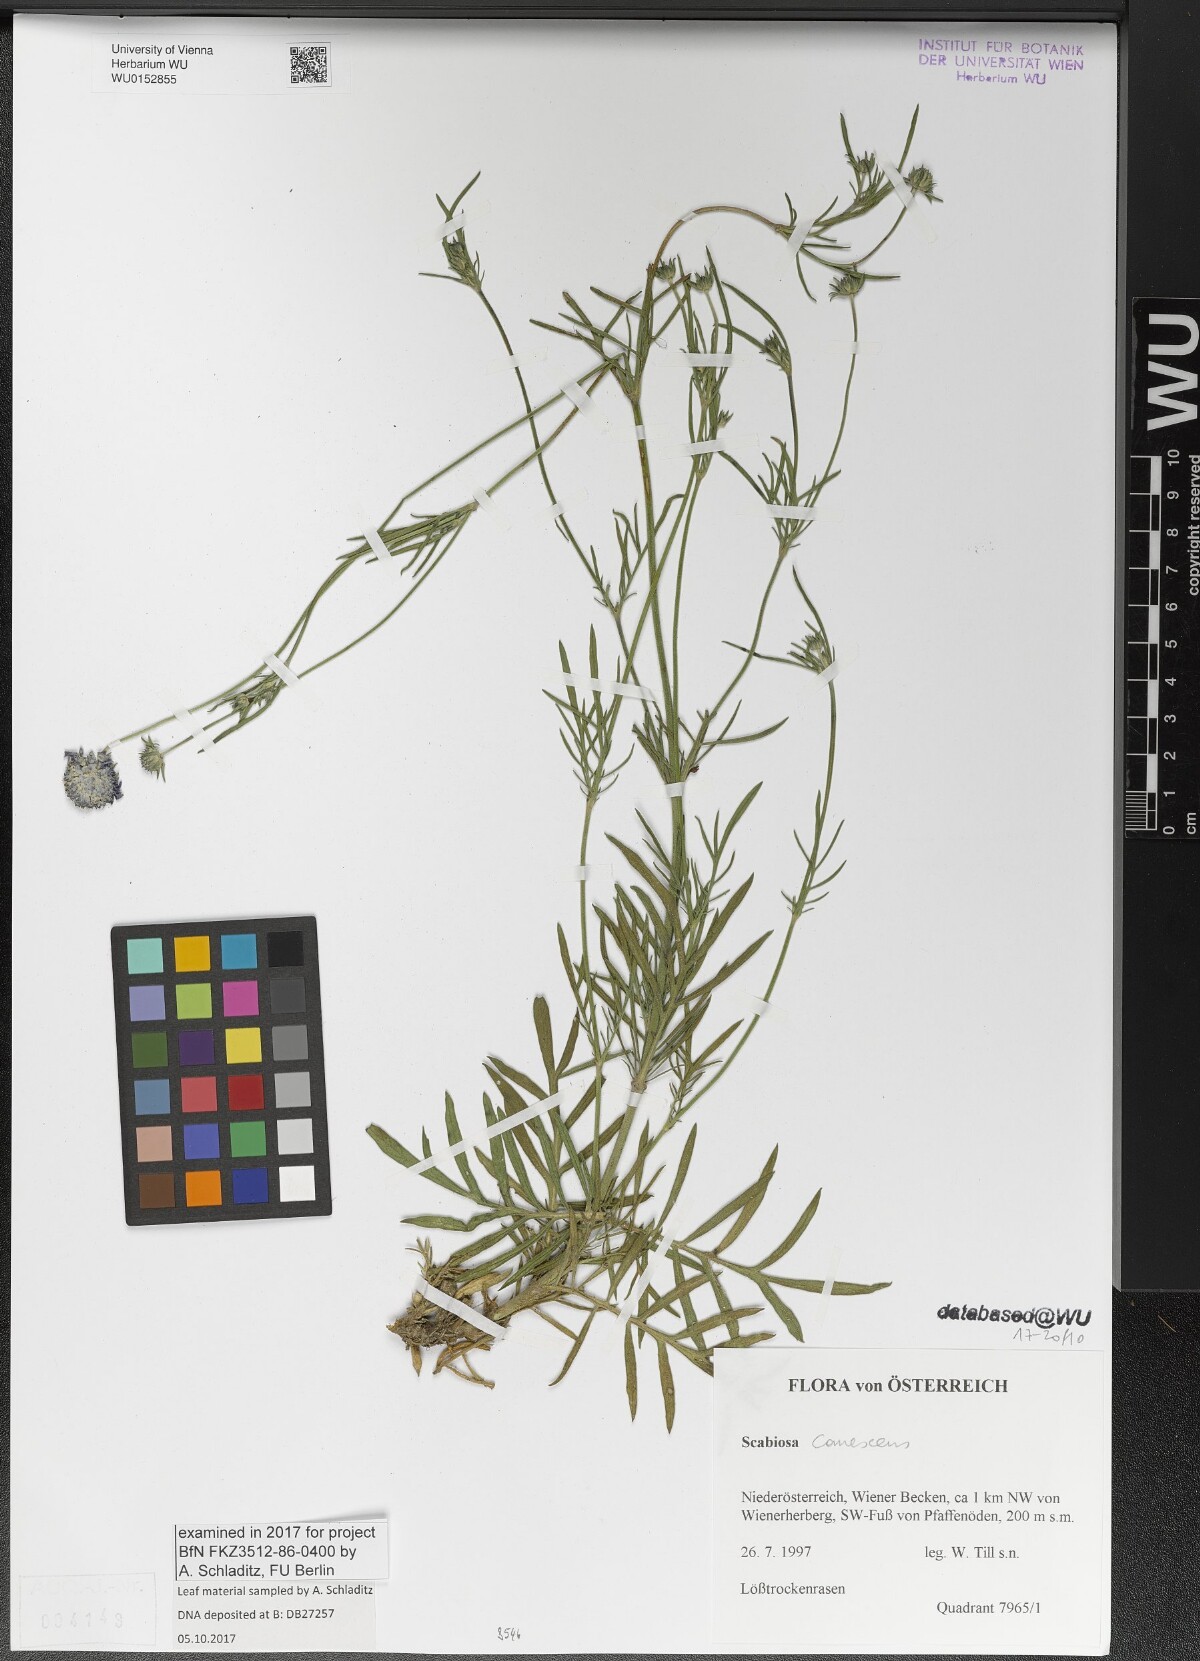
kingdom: Plantae
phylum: Tracheophyta
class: Magnoliopsida
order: Dipsacales
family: Caprifoliaceae
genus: Scabiosa
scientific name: Scabiosa canescens
